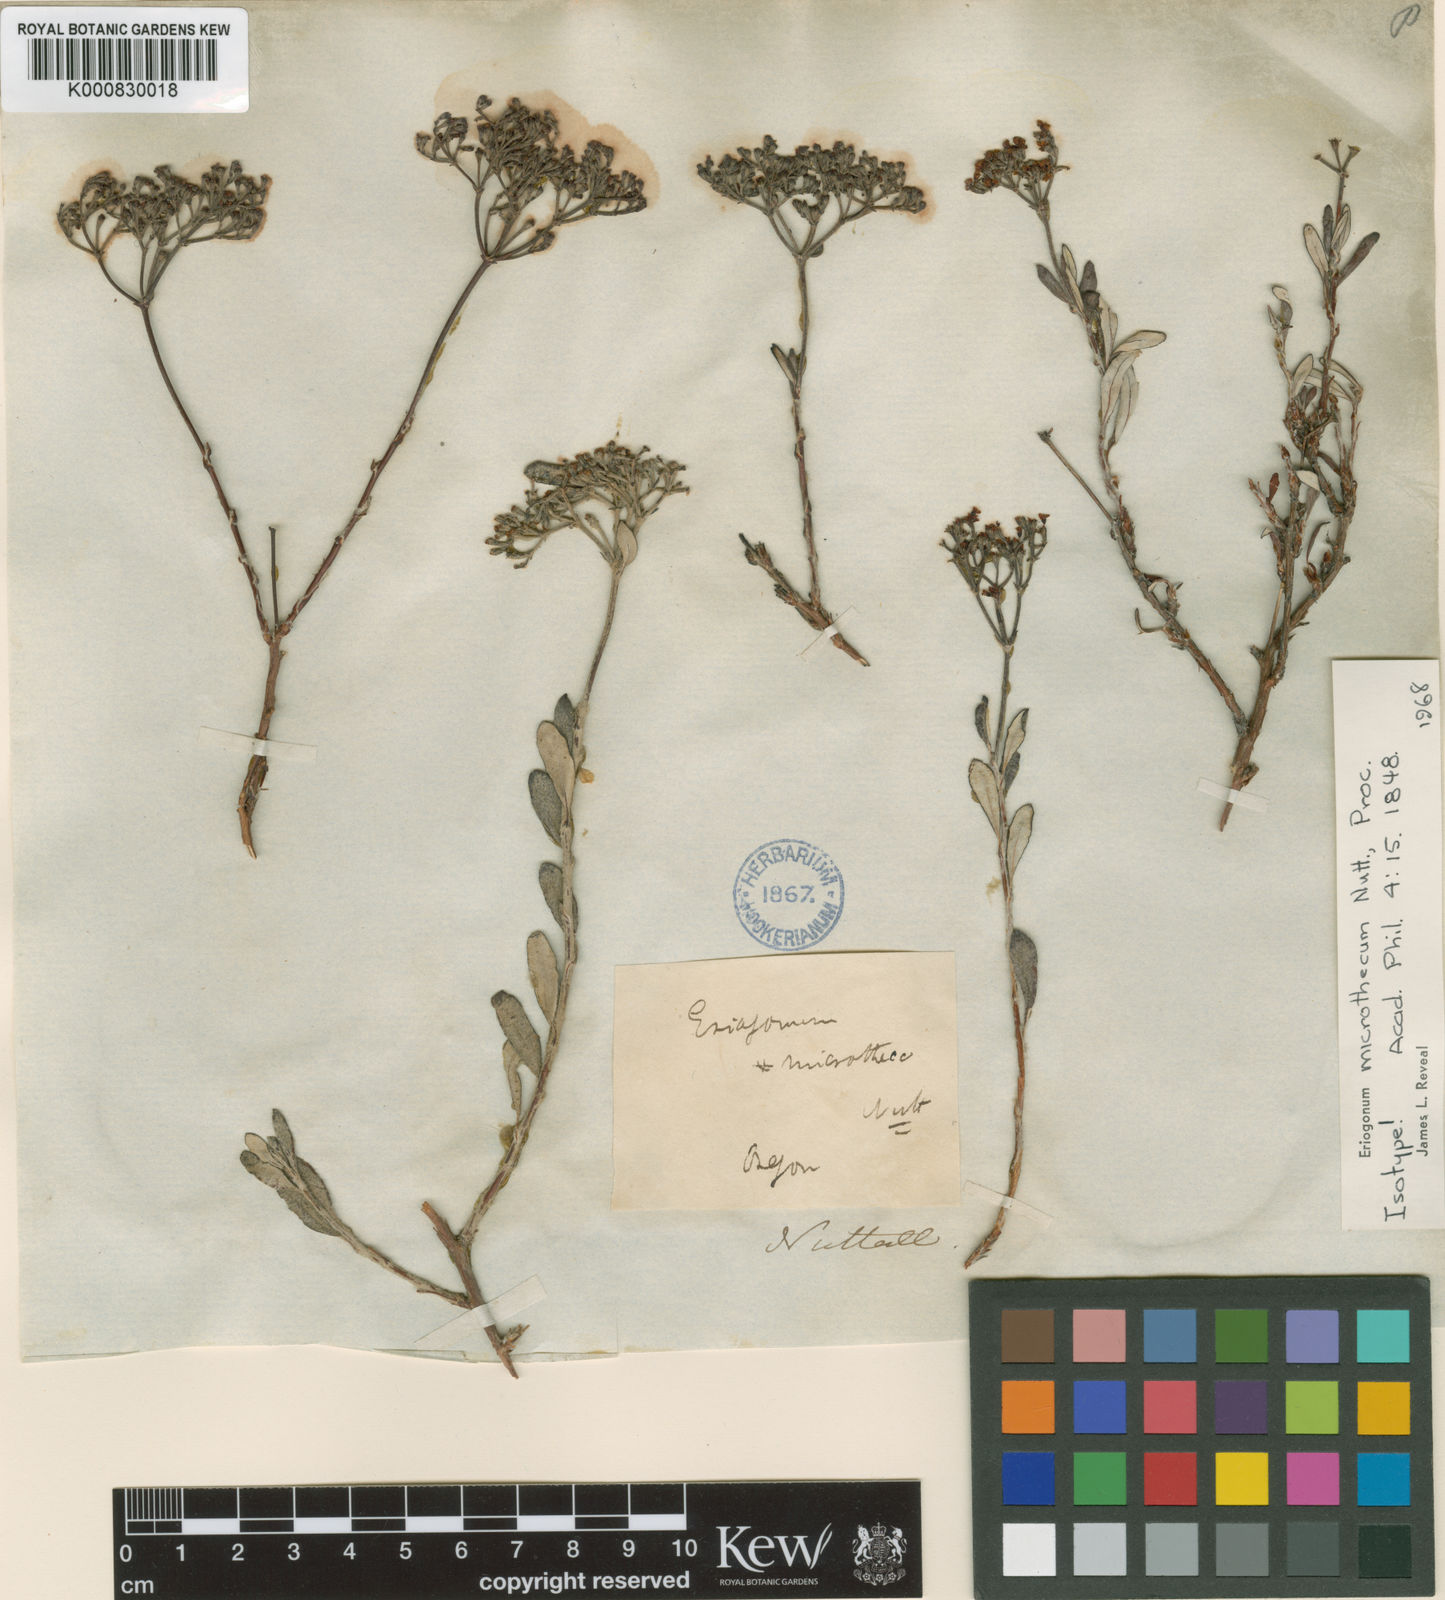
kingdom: Plantae
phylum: Tracheophyta
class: Magnoliopsida
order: Caryophyllales
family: Polygonaceae
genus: Eriogonum
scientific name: Eriogonum microtheca
